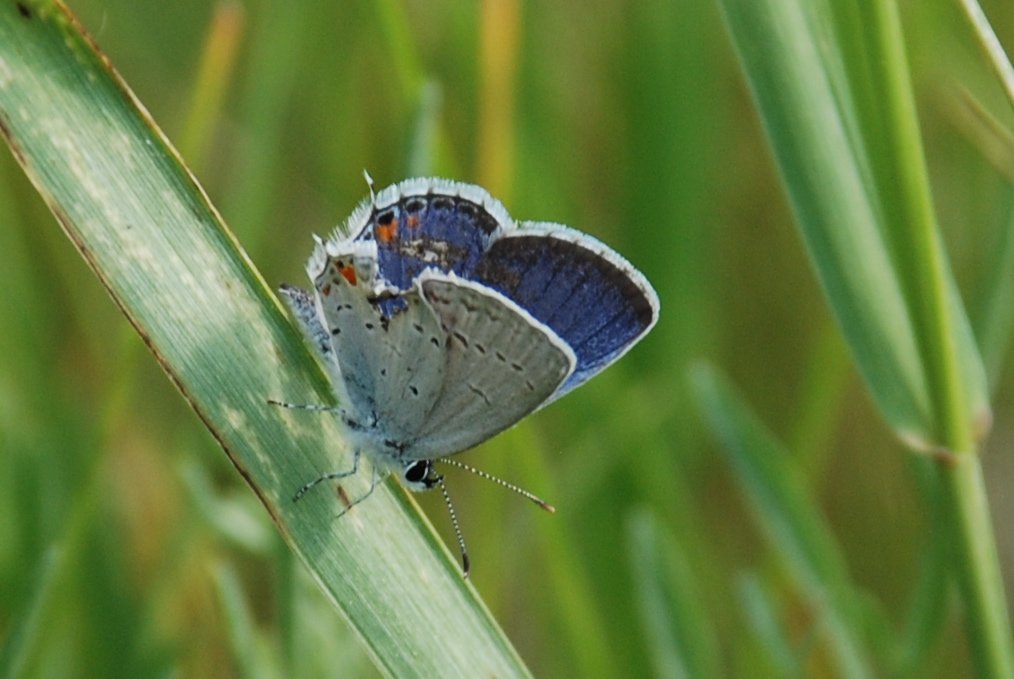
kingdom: Animalia
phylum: Arthropoda
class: Insecta
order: Lepidoptera
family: Lycaenidae
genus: Elkalyce
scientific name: Elkalyce comyntas
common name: Eastern Tailed-Blue
